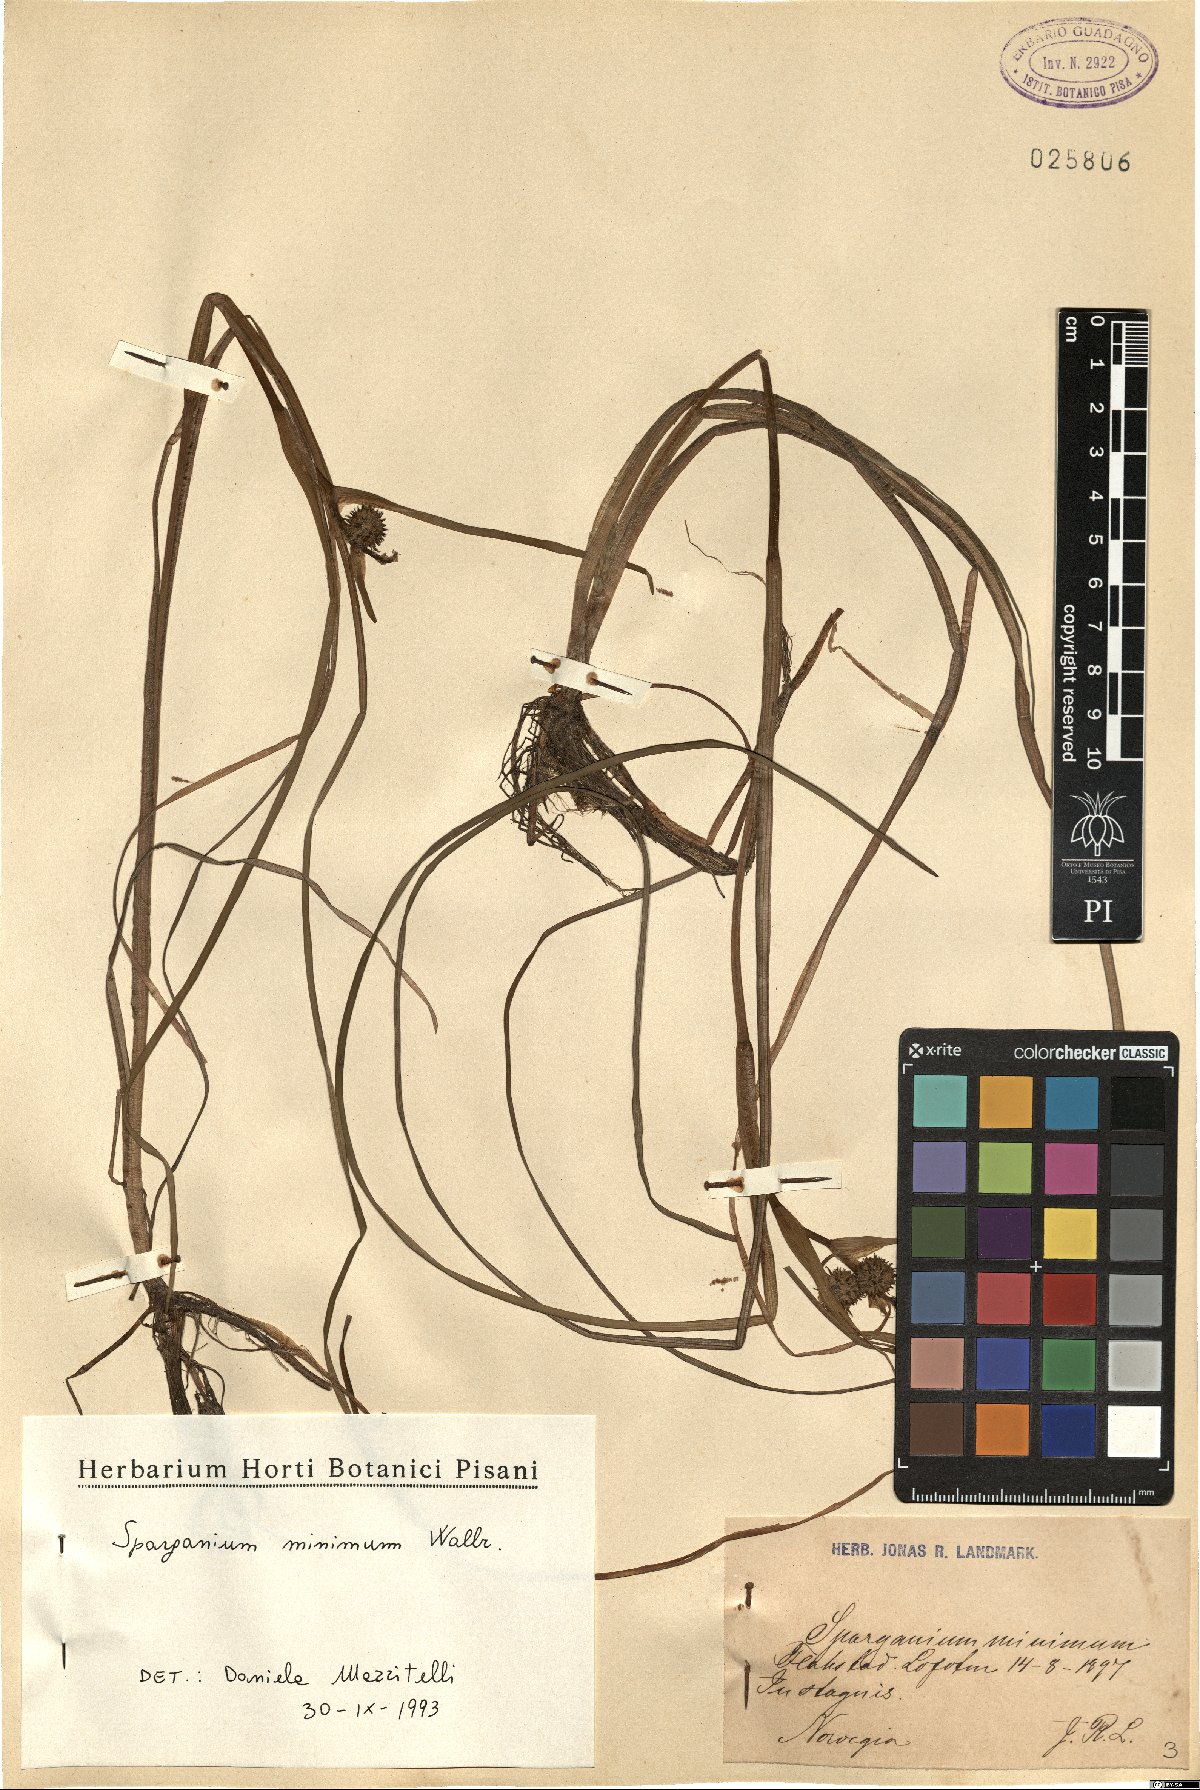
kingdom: Plantae
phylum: Tracheophyta
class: Liliopsida
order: Poales
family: Typhaceae
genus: Sparganium
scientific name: Sparganium natans
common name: Least bur-reed
